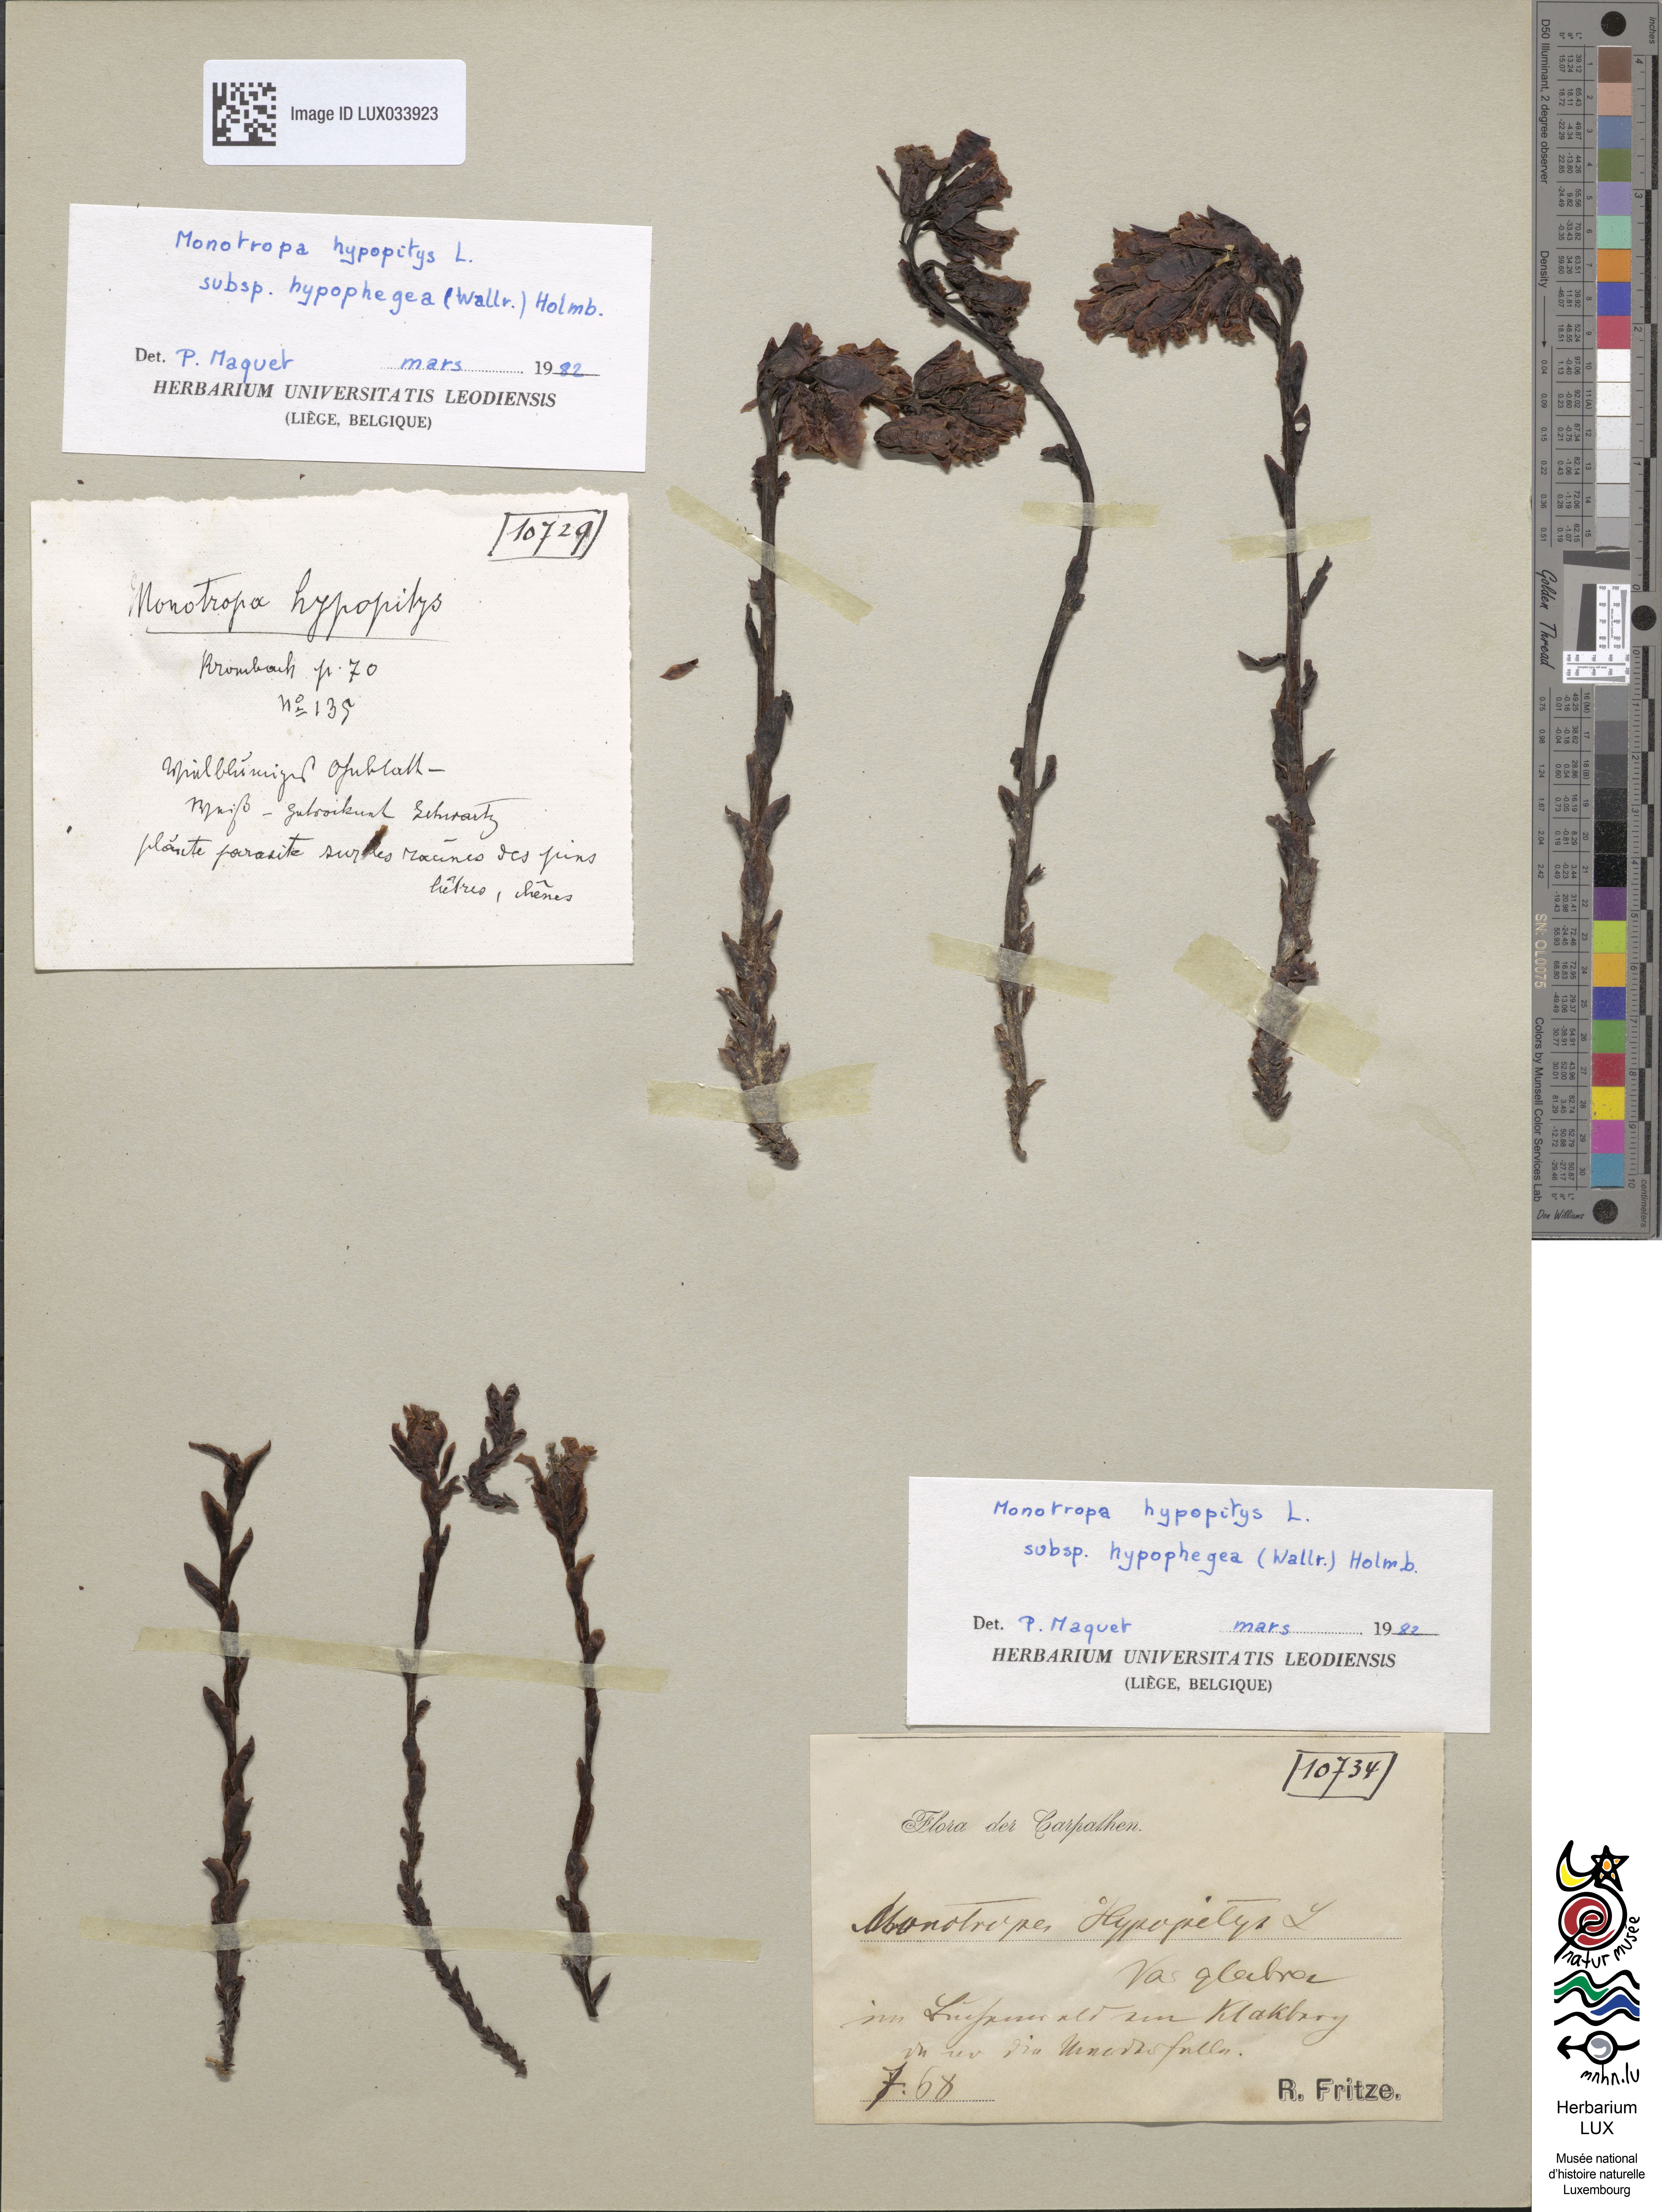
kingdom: Plantae
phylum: Tracheophyta
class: Magnoliopsida
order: Ericales
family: Ericaceae
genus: Hypopitys
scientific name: Hypopitys hypophegea
